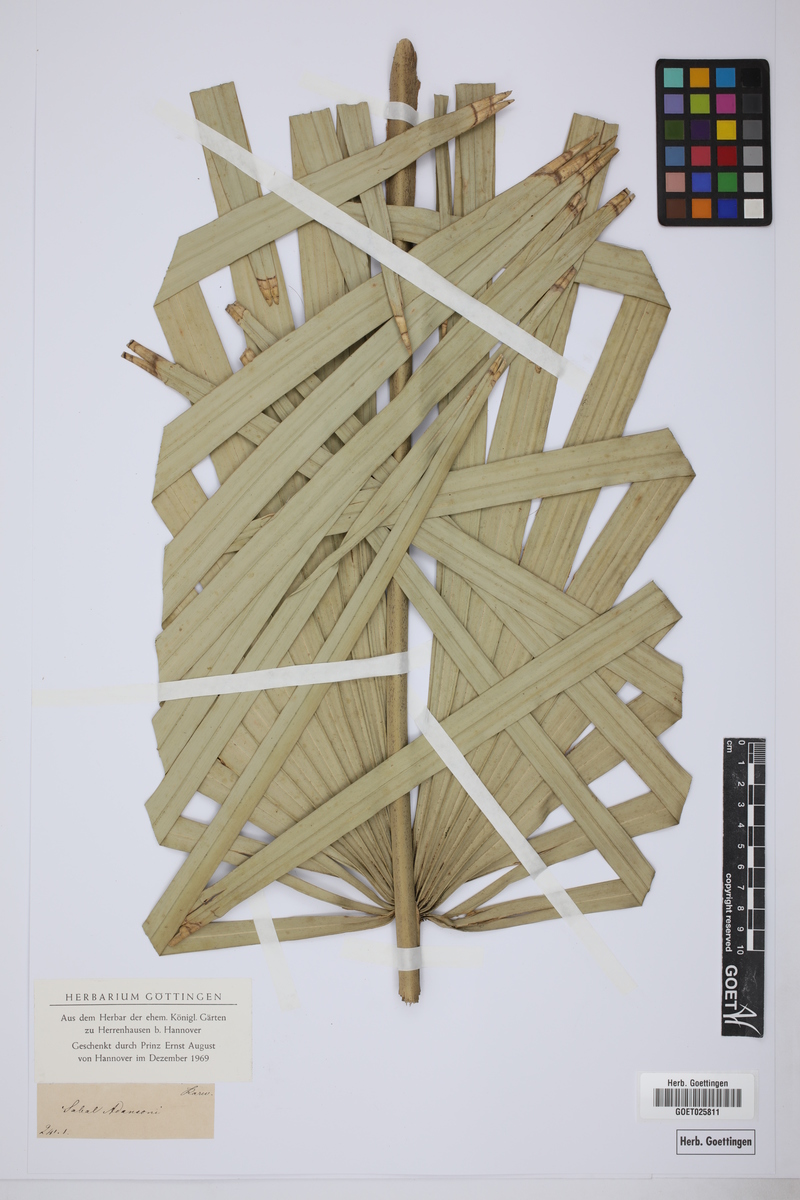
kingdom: Plantae
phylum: Tracheophyta
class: Liliopsida
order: Arecales
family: Arecaceae
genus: Sabal
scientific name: Sabal minor
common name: Dwarf palmetto
